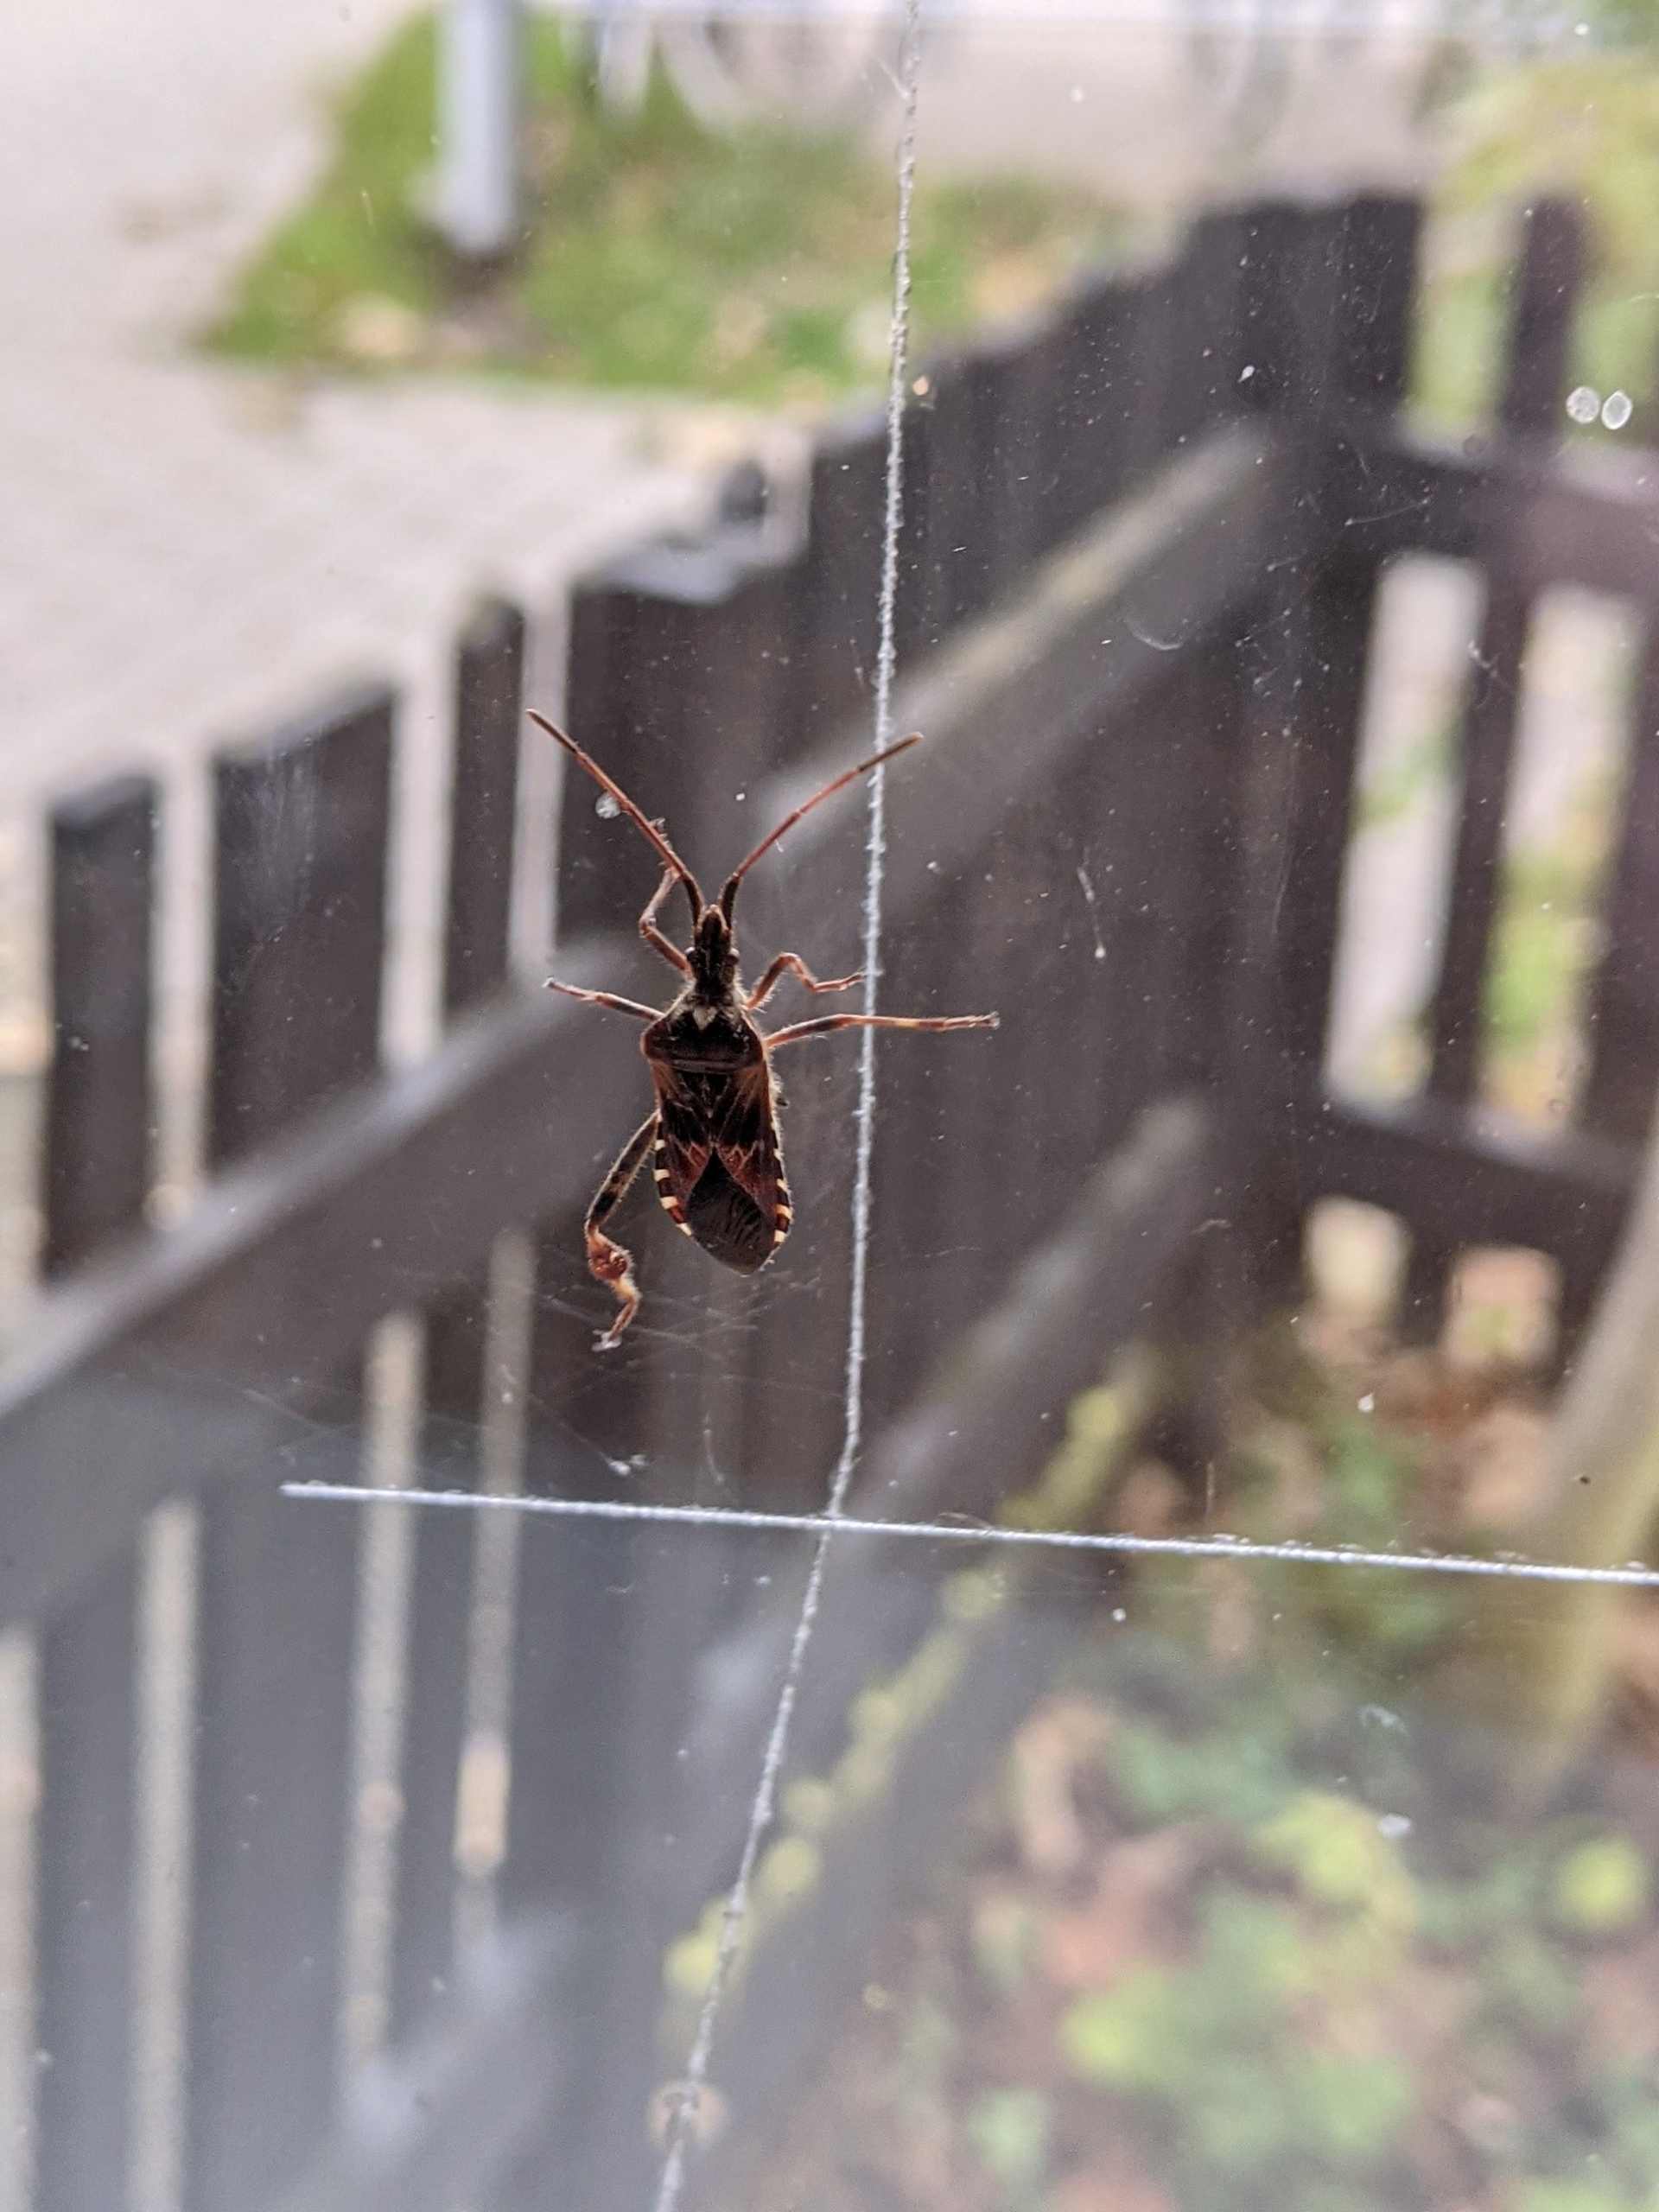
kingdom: Animalia
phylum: Arthropoda
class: Insecta
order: Hemiptera
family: Coreidae
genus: Leptoglossus
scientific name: Leptoglossus occidentalis
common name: Amerikansk fyrretæge
